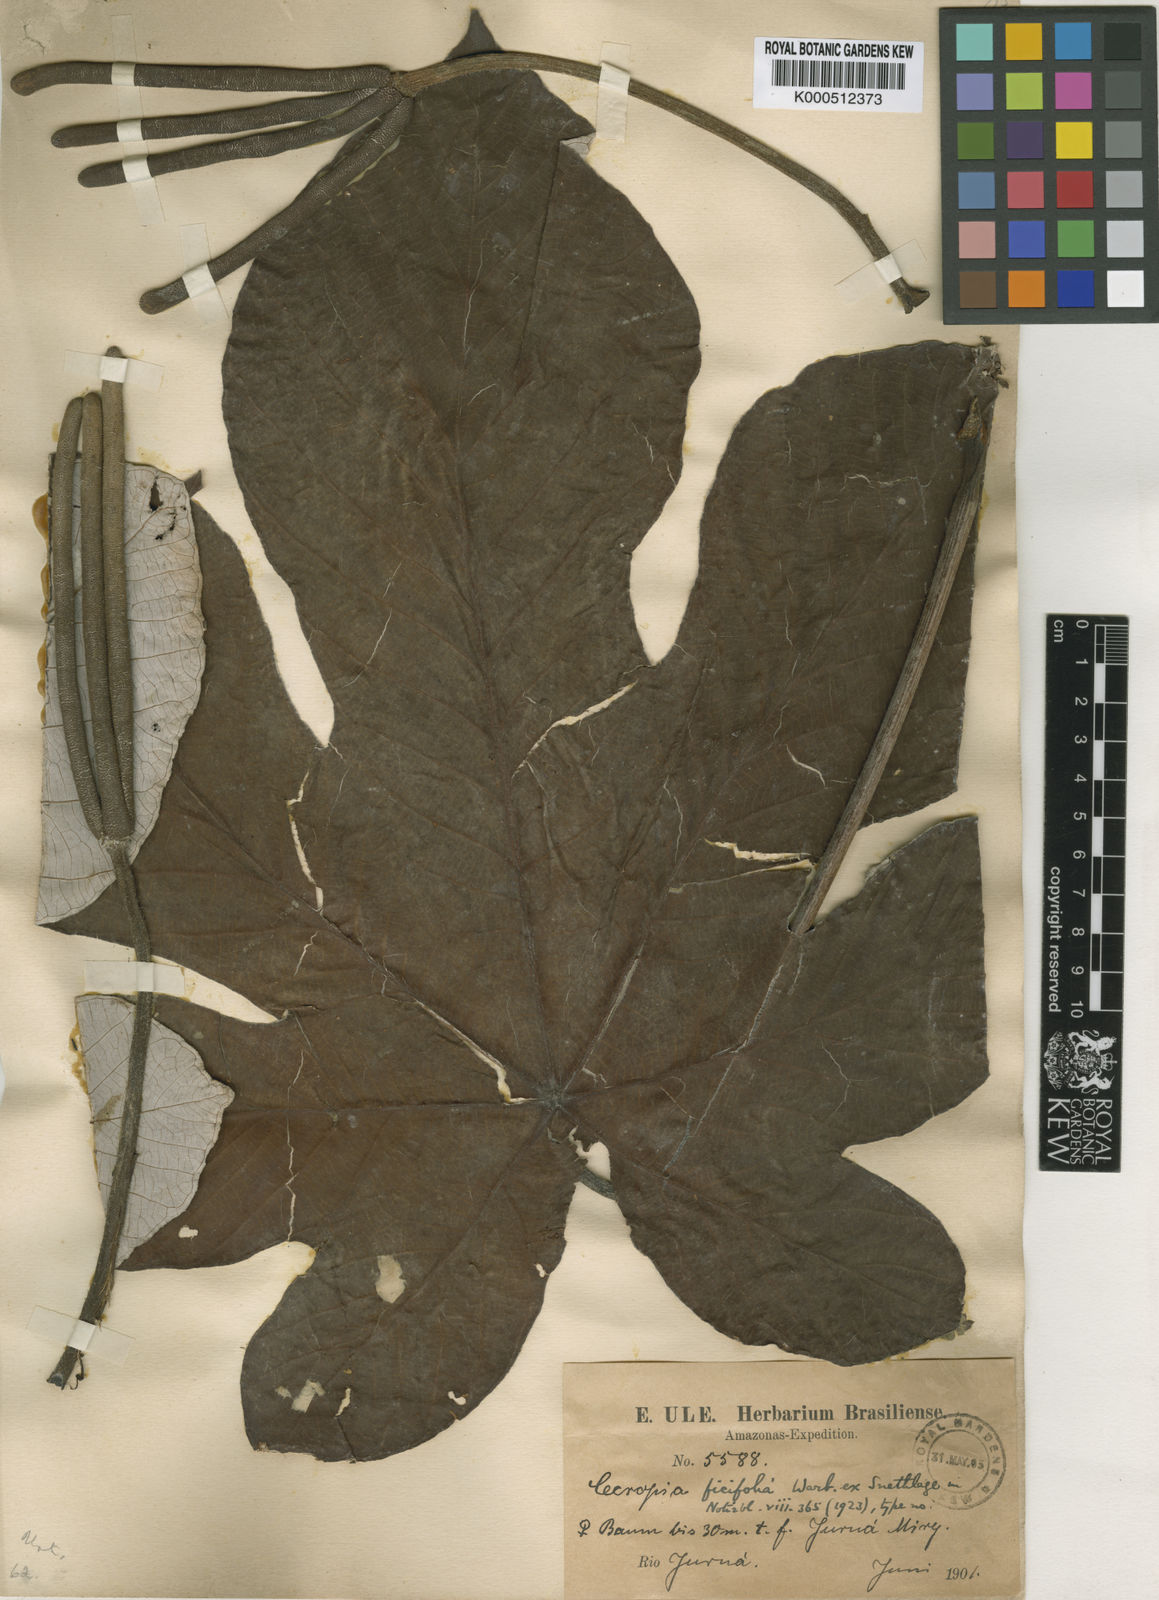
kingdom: Plantae
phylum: Tracheophyta
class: Magnoliopsida
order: Rosales
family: Urticaceae
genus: Cecropia
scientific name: Cecropia ficifolia
